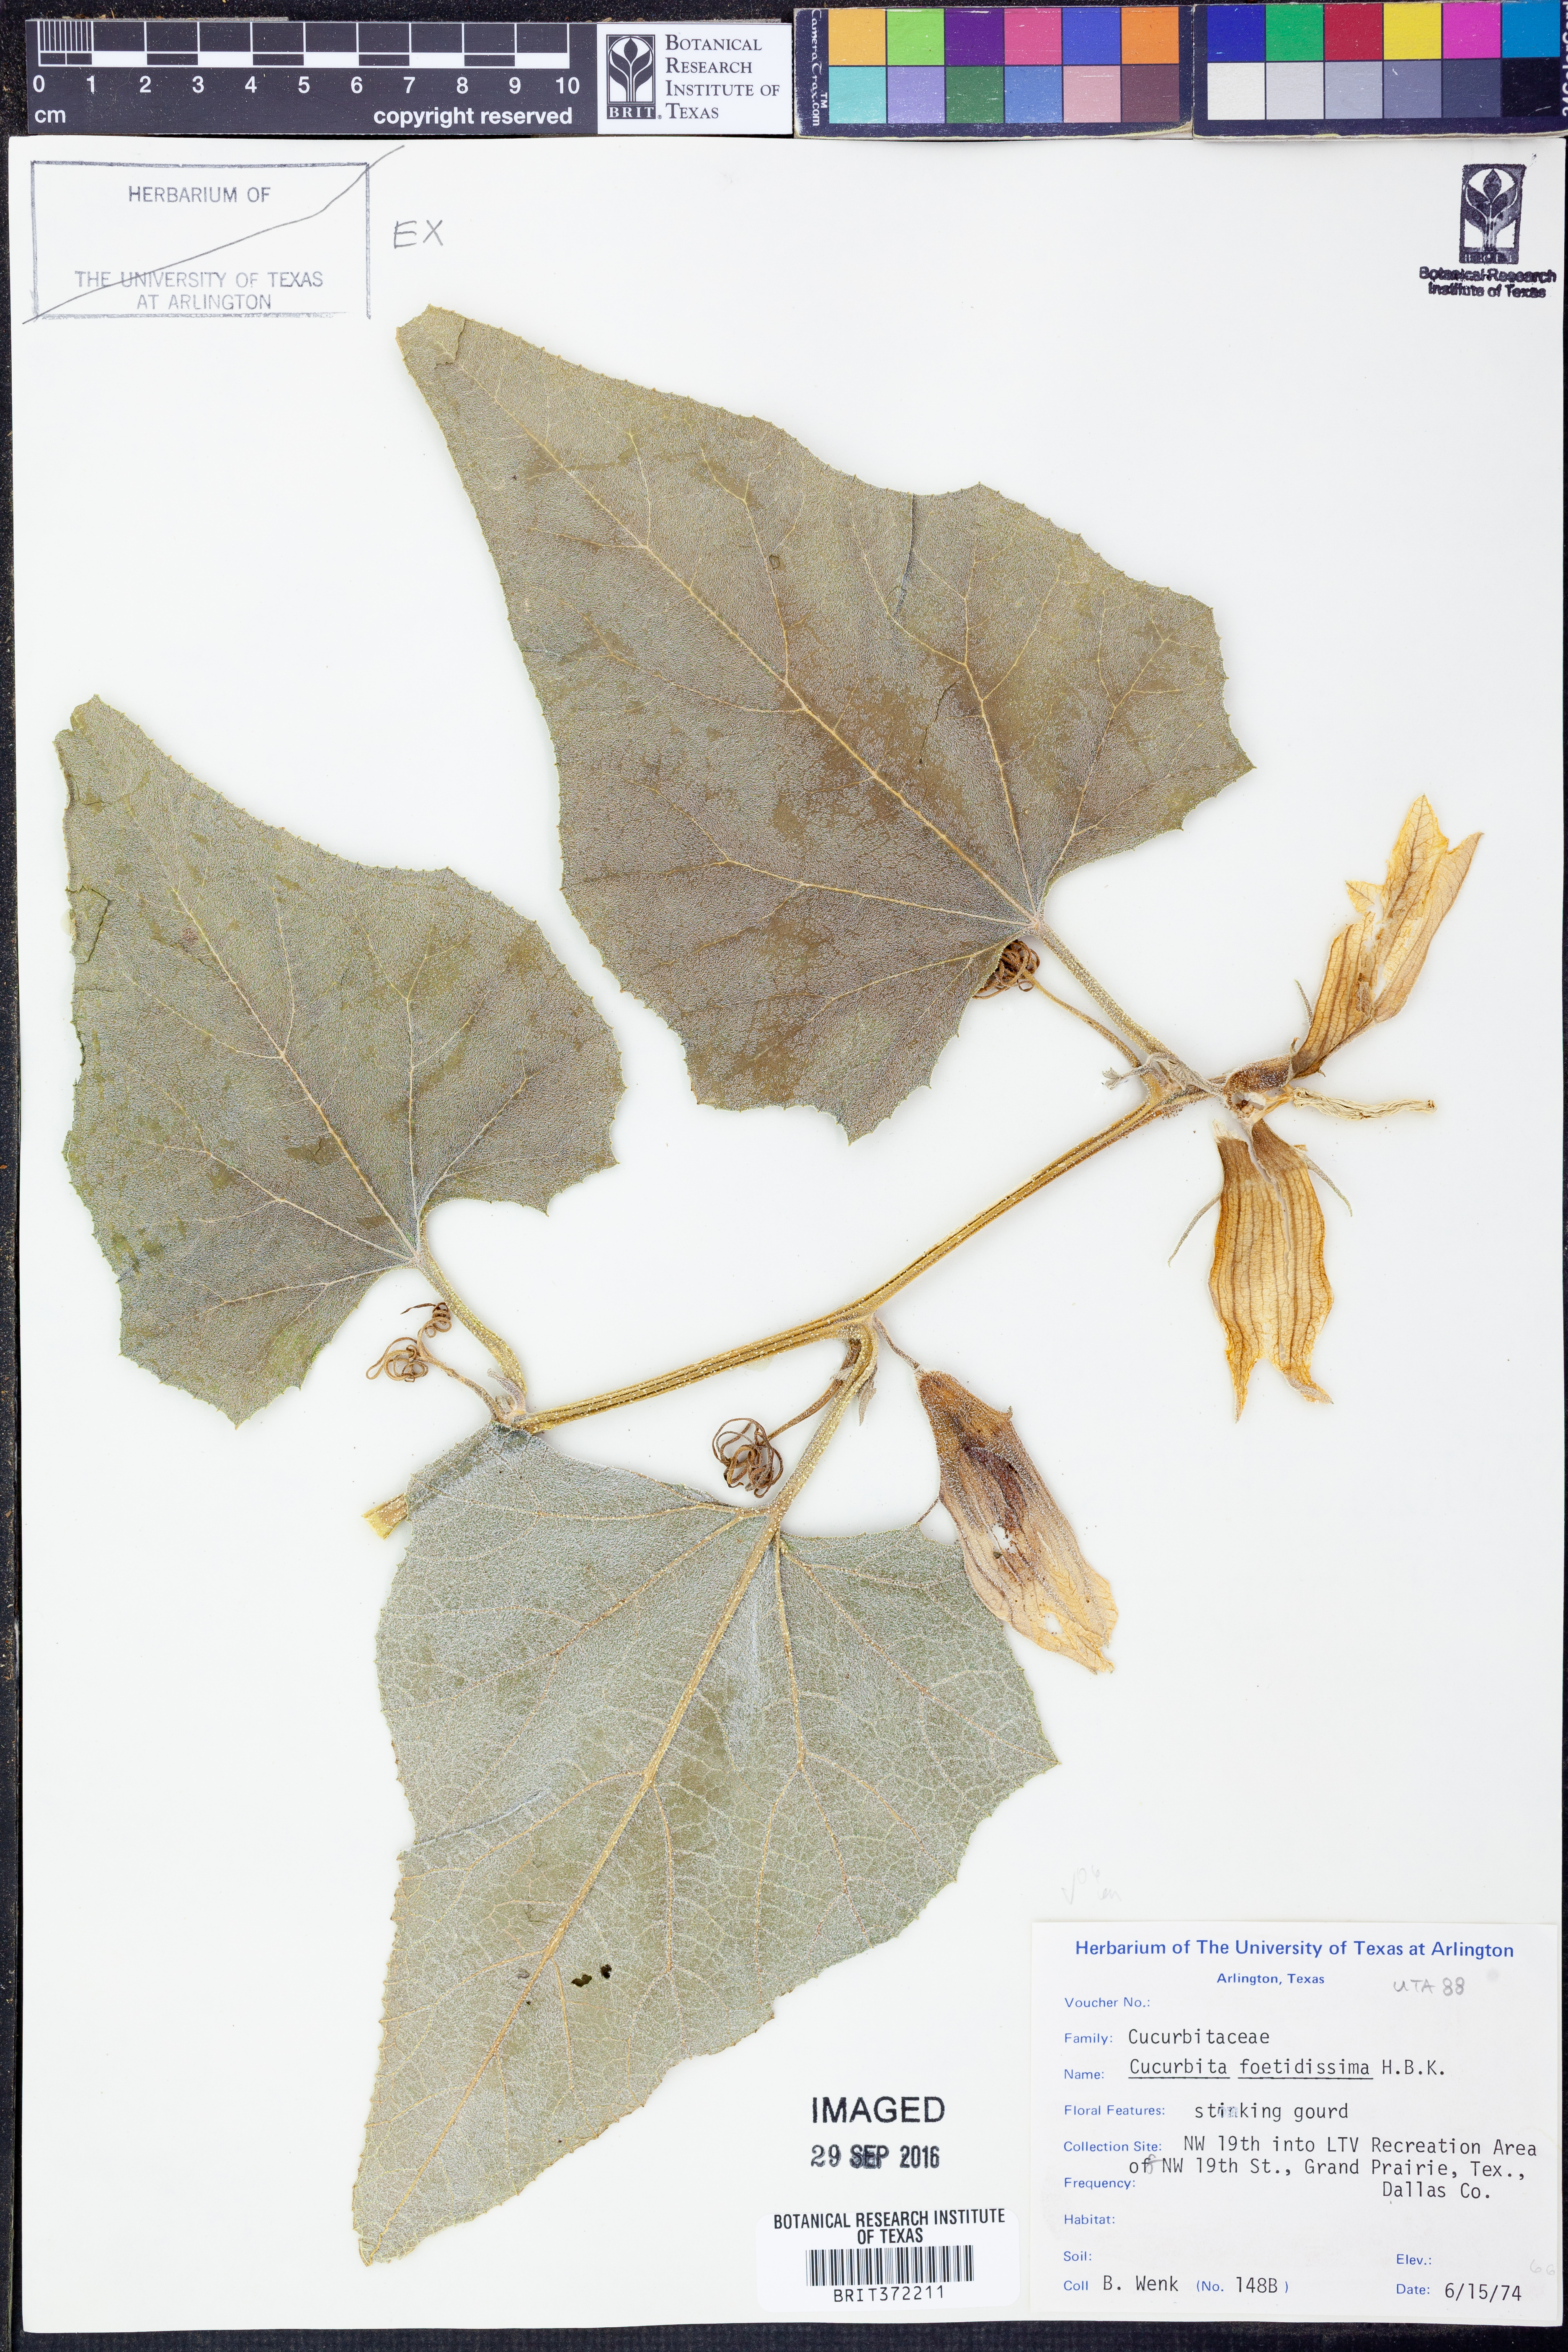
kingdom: Plantae
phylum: Tracheophyta
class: Magnoliopsida
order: Cucurbitales
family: Cucurbitaceae
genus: Cucurbita
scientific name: Cucurbita foetidissima
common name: Buffalo gourd
